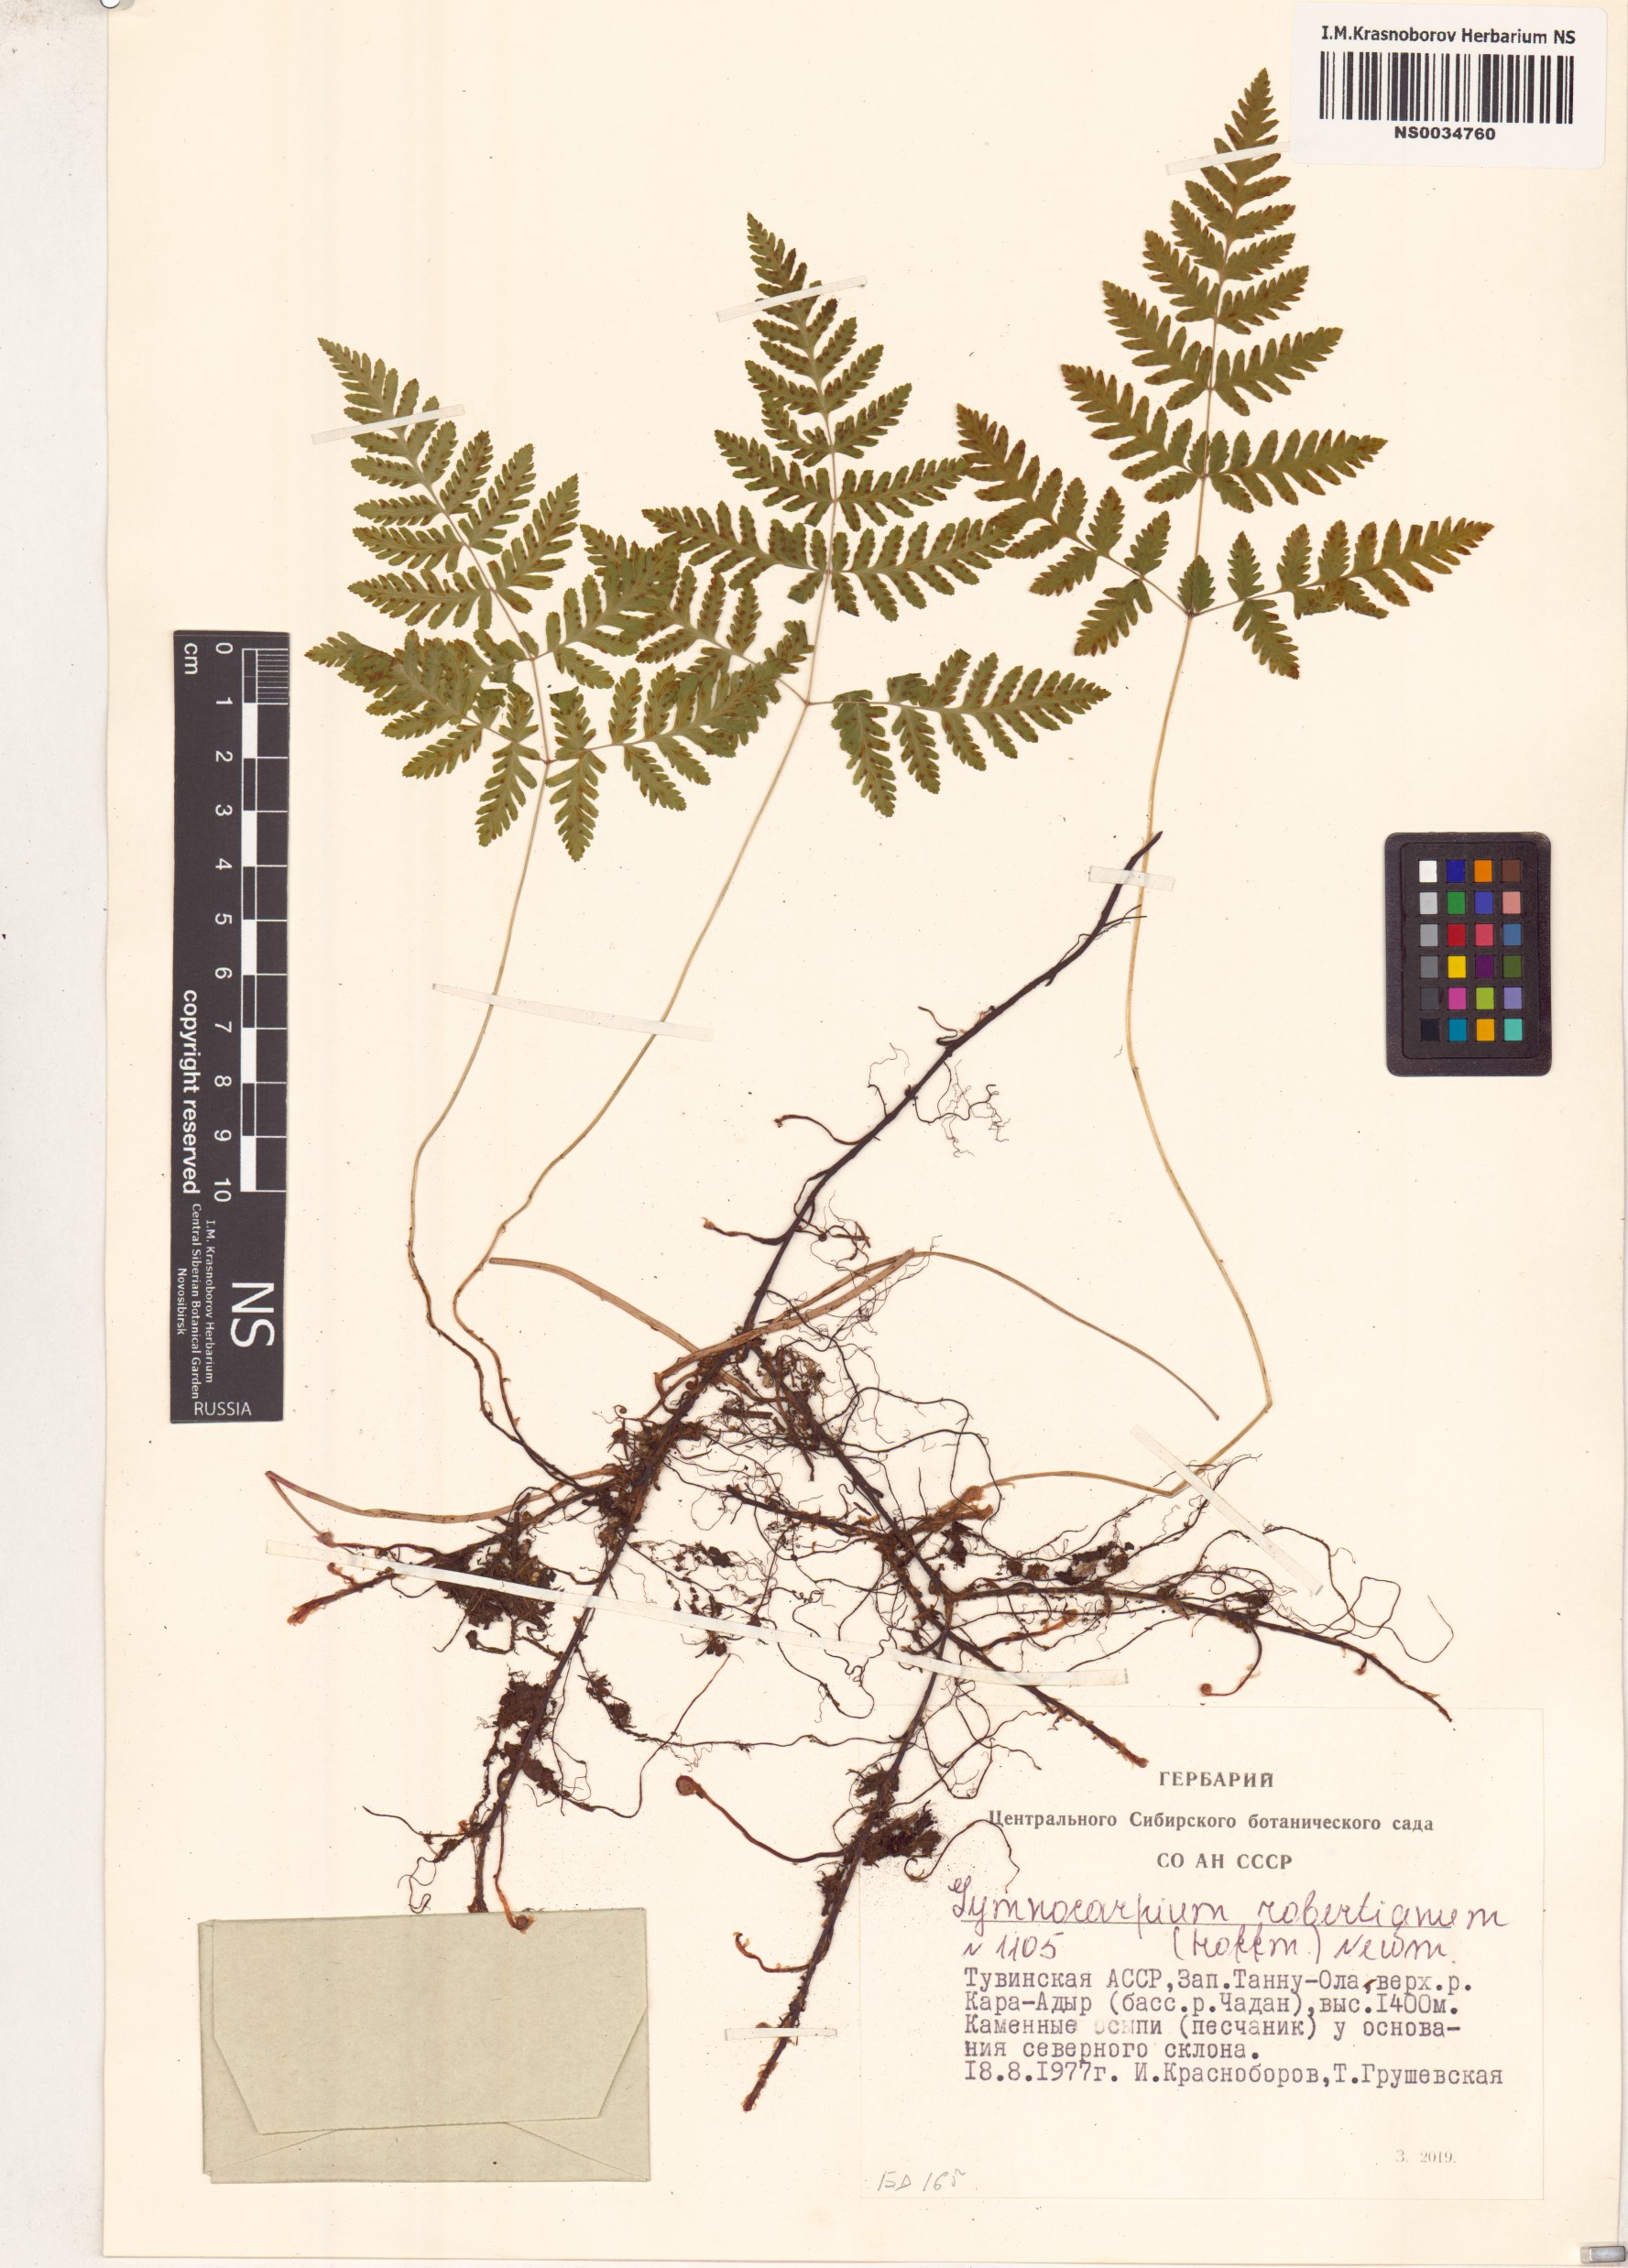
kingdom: Plantae
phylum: Tracheophyta
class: Polypodiopsida
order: Polypodiales
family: Cystopteridaceae
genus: Gymnocarpium
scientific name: Gymnocarpium robertianum
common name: Limestone fern
